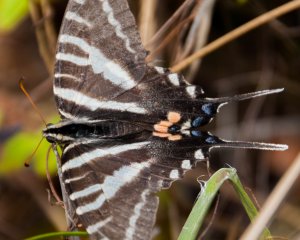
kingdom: Animalia
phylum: Arthropoda
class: Insecta
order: Lepidoptera
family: Papilionidae
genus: Protographium
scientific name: Protographium marcellus
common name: Zebra Swallowtail
